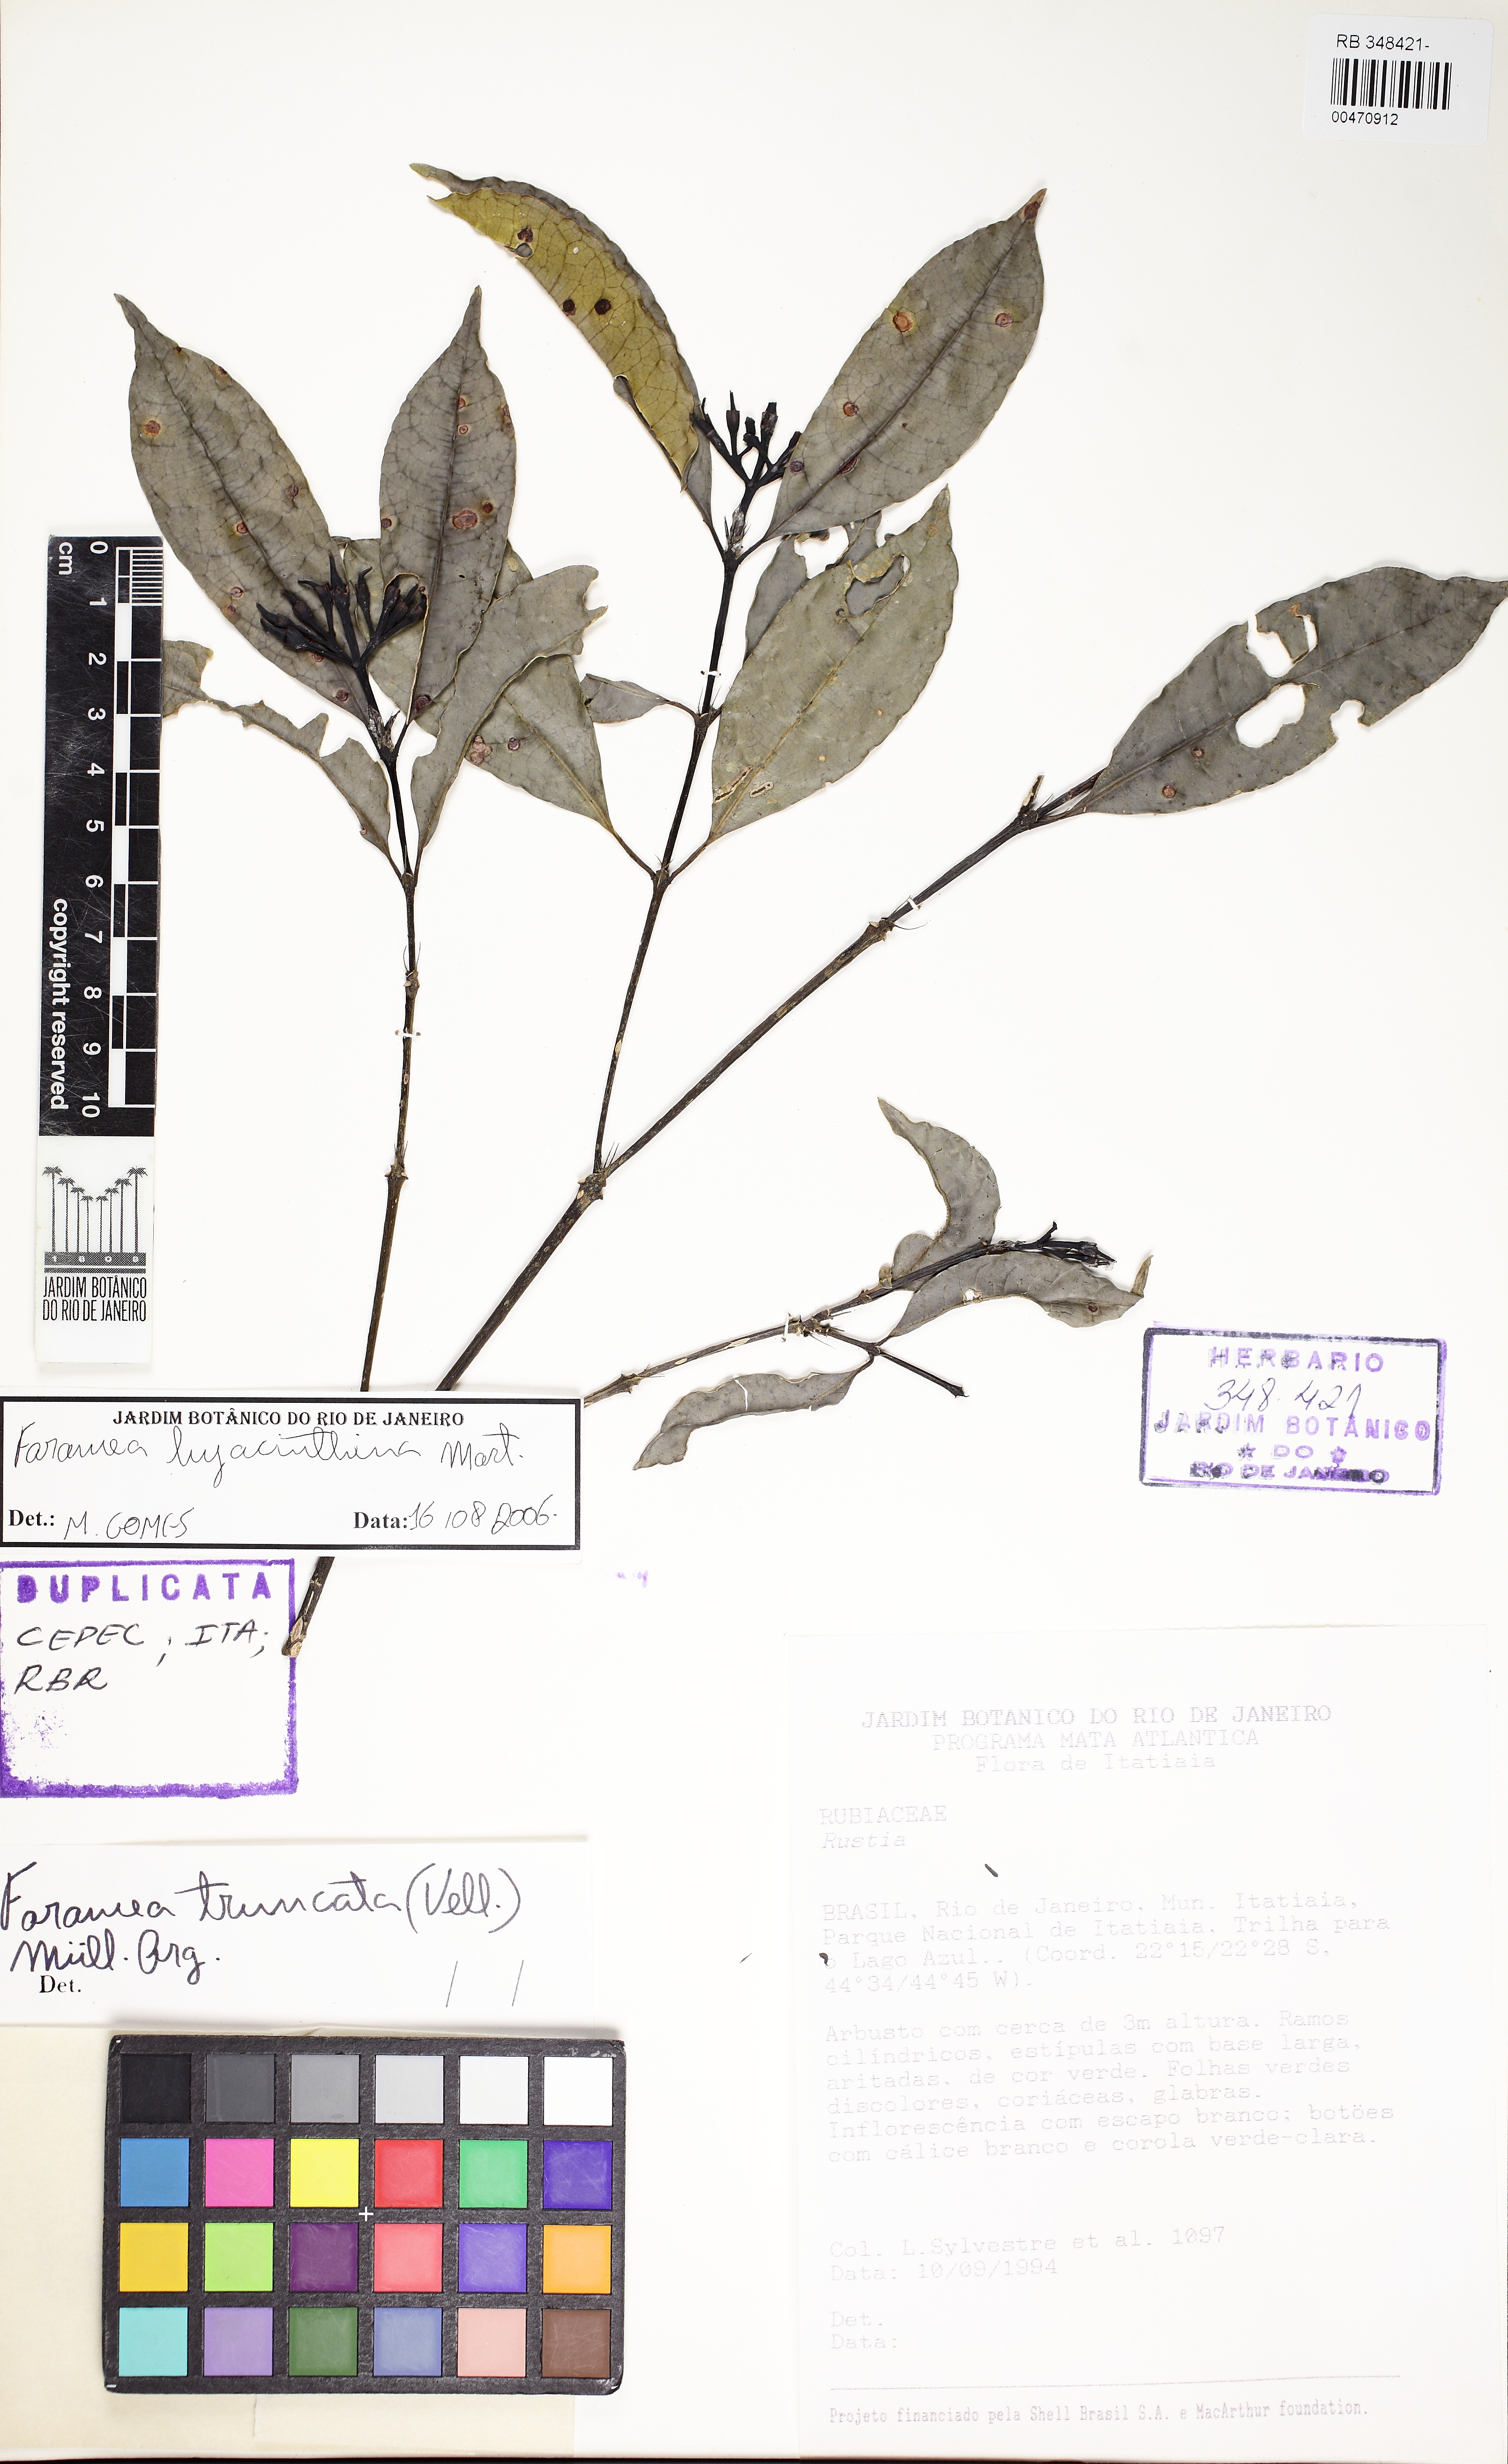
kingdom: Plantae
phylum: Tracheophyta
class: Magnoliopsida
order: Gentianales
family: Rubiaceae
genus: Faramea
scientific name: Faramea caudata
